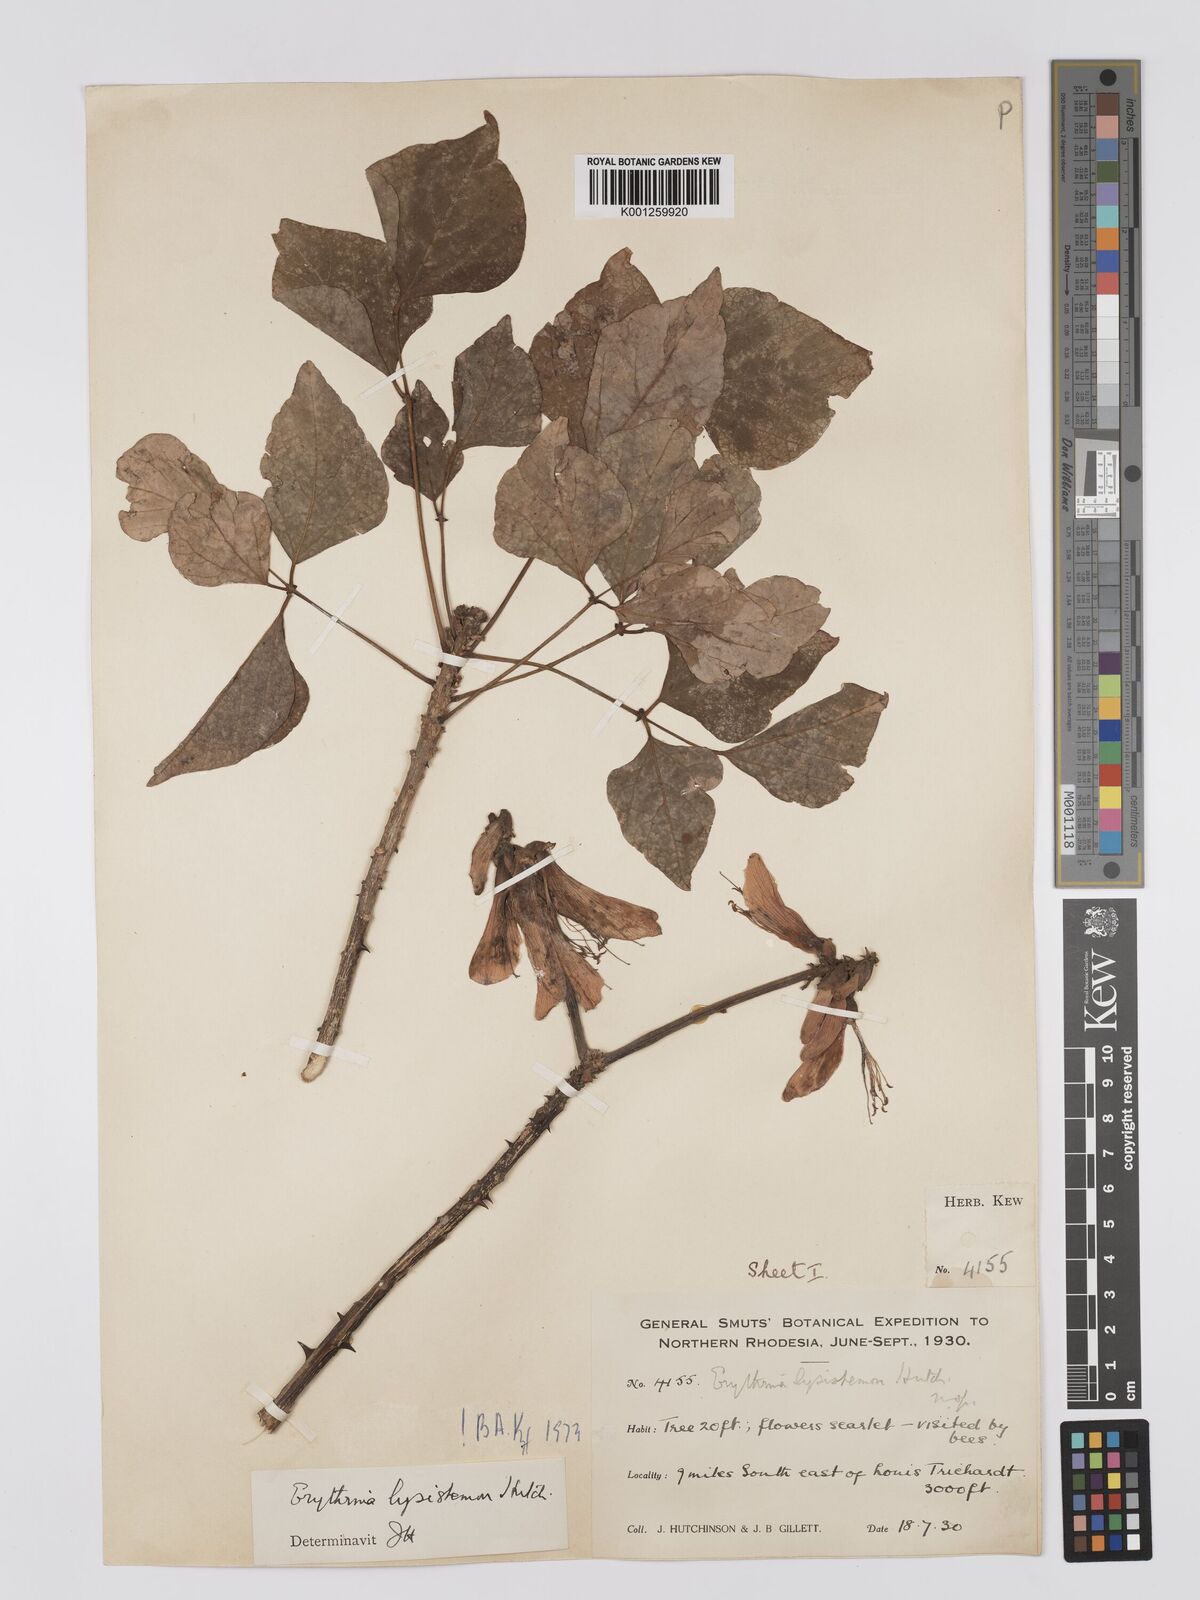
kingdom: Plantae
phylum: Tracheophyta
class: Magnoliopsida
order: Fabales
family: Fabaceae
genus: Erythrina
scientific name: Erythrina lysistemon
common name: Common coral tree
